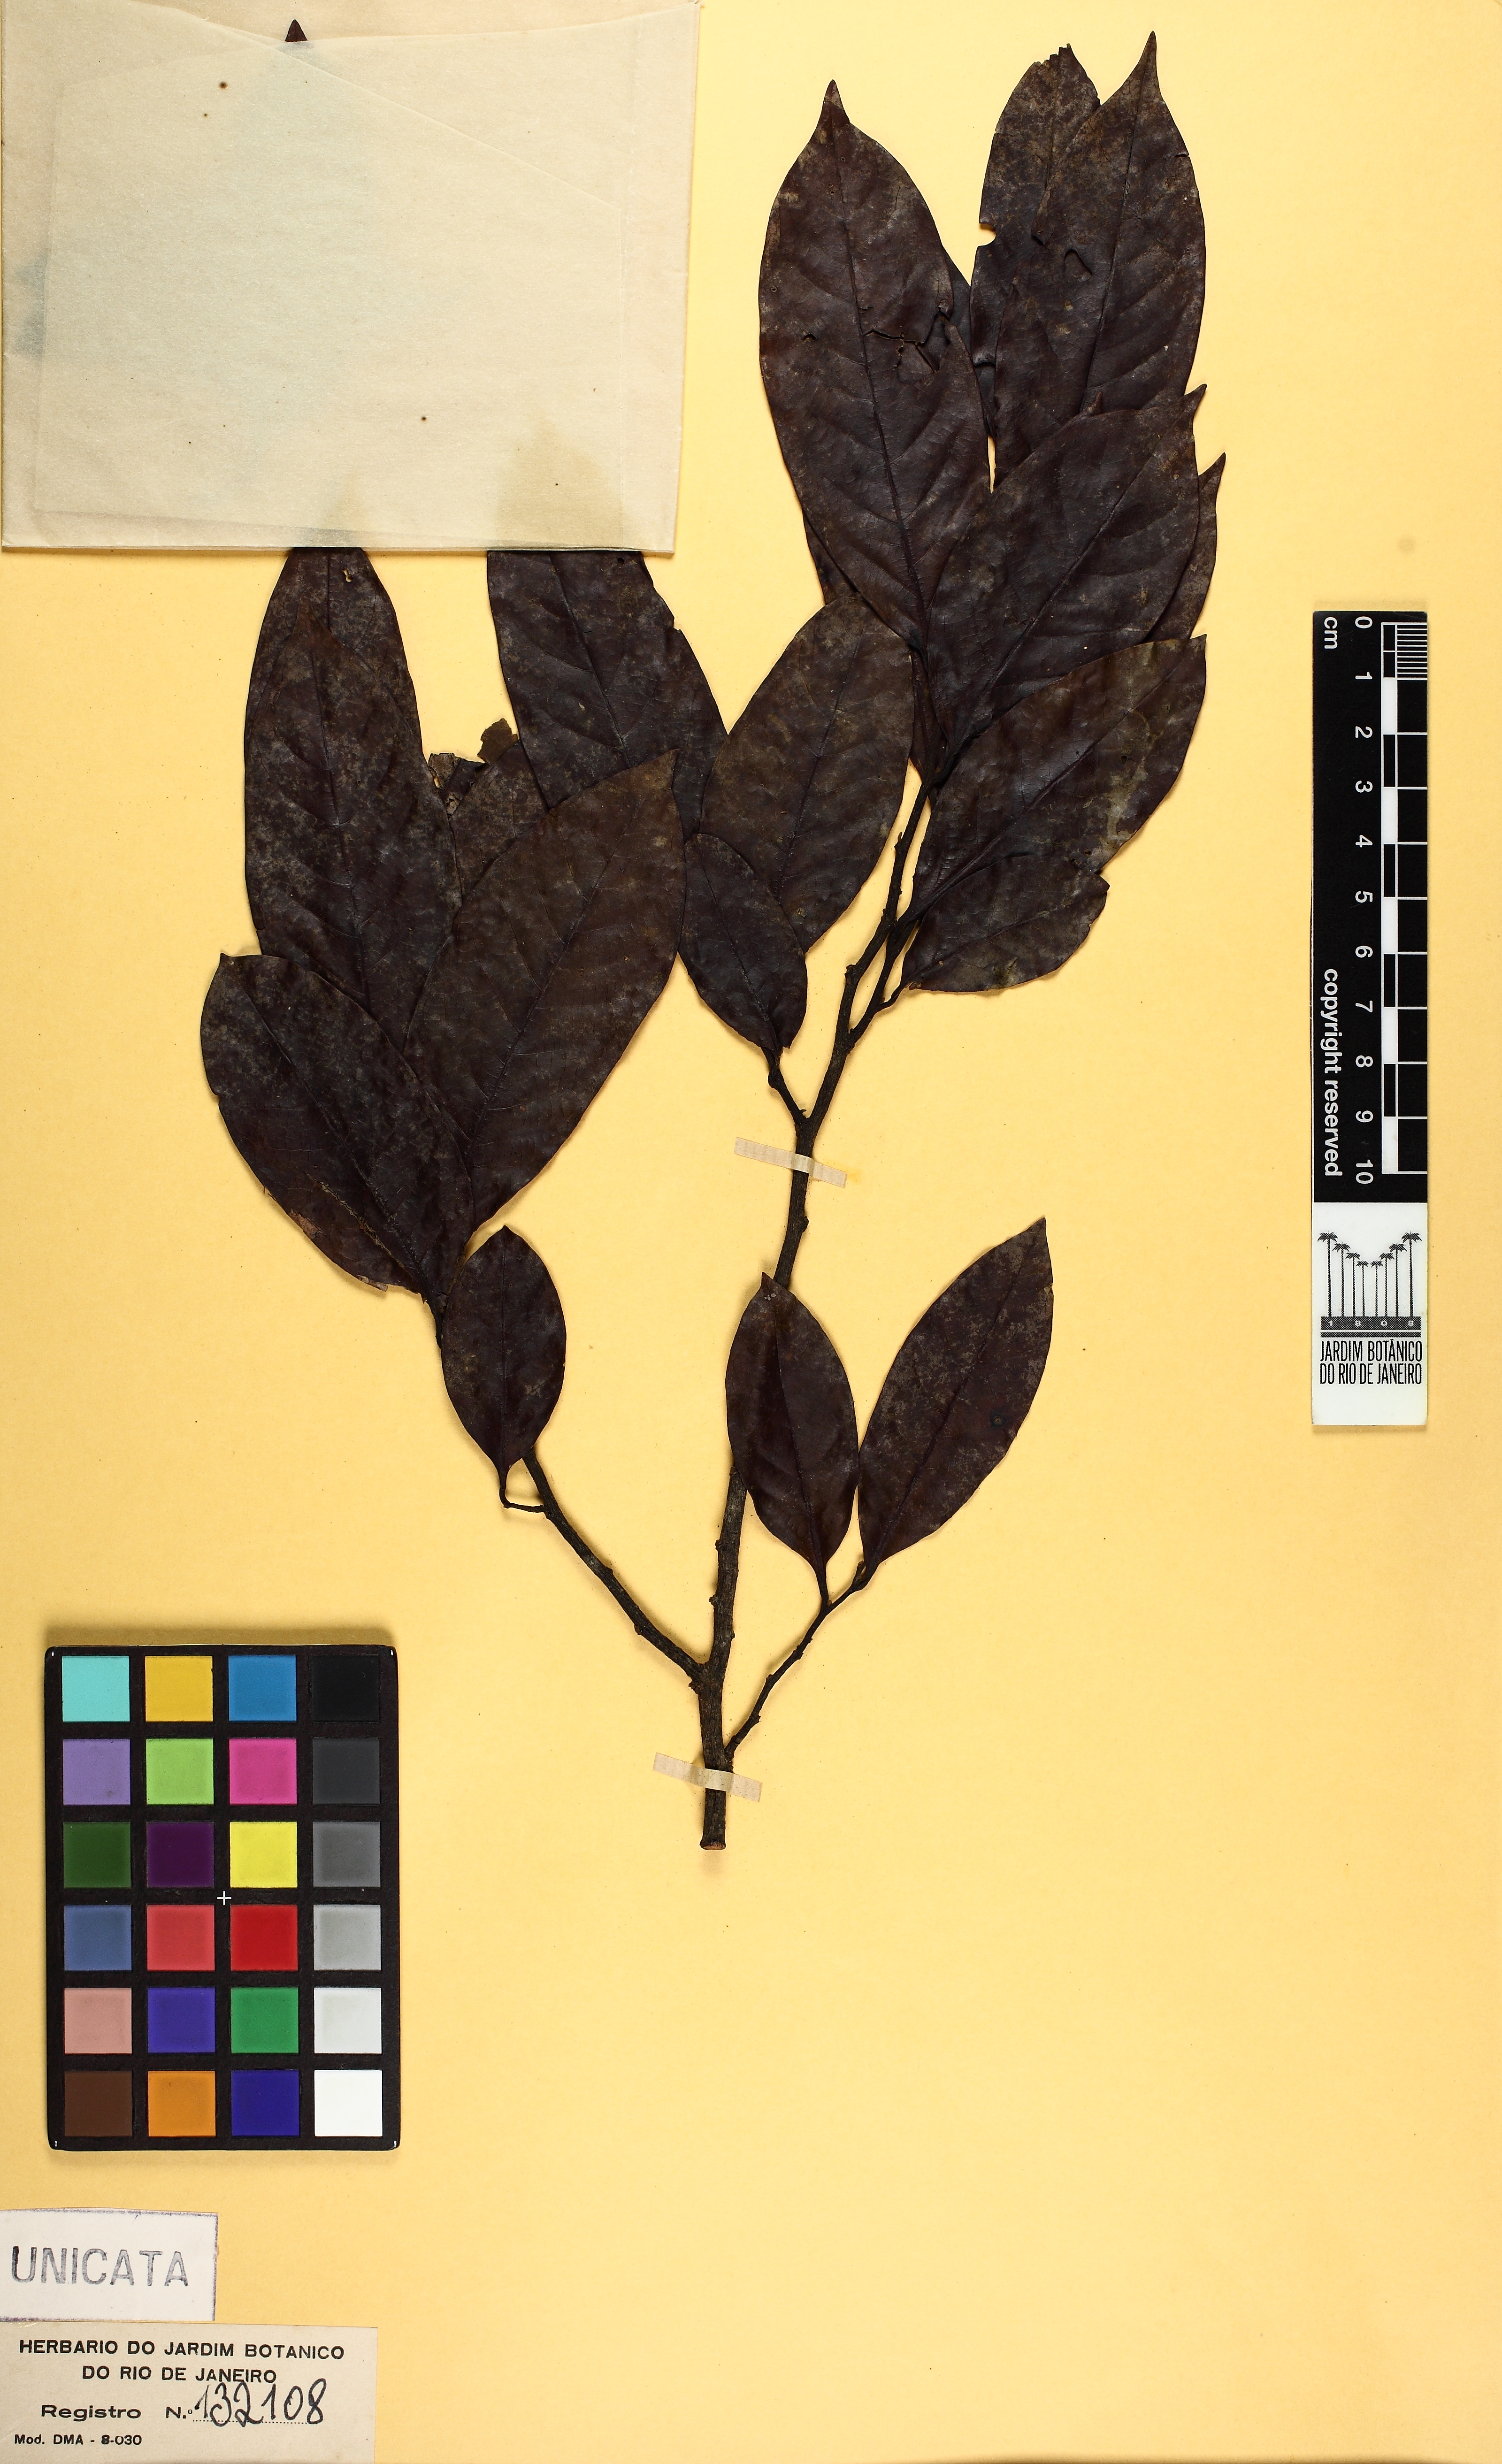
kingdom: Plantae
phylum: Tracheophyta
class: Magnoliopsida
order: Magnoliales
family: Annonaceae
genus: Bocageopsis
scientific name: Bocageopsis pleiosperma
